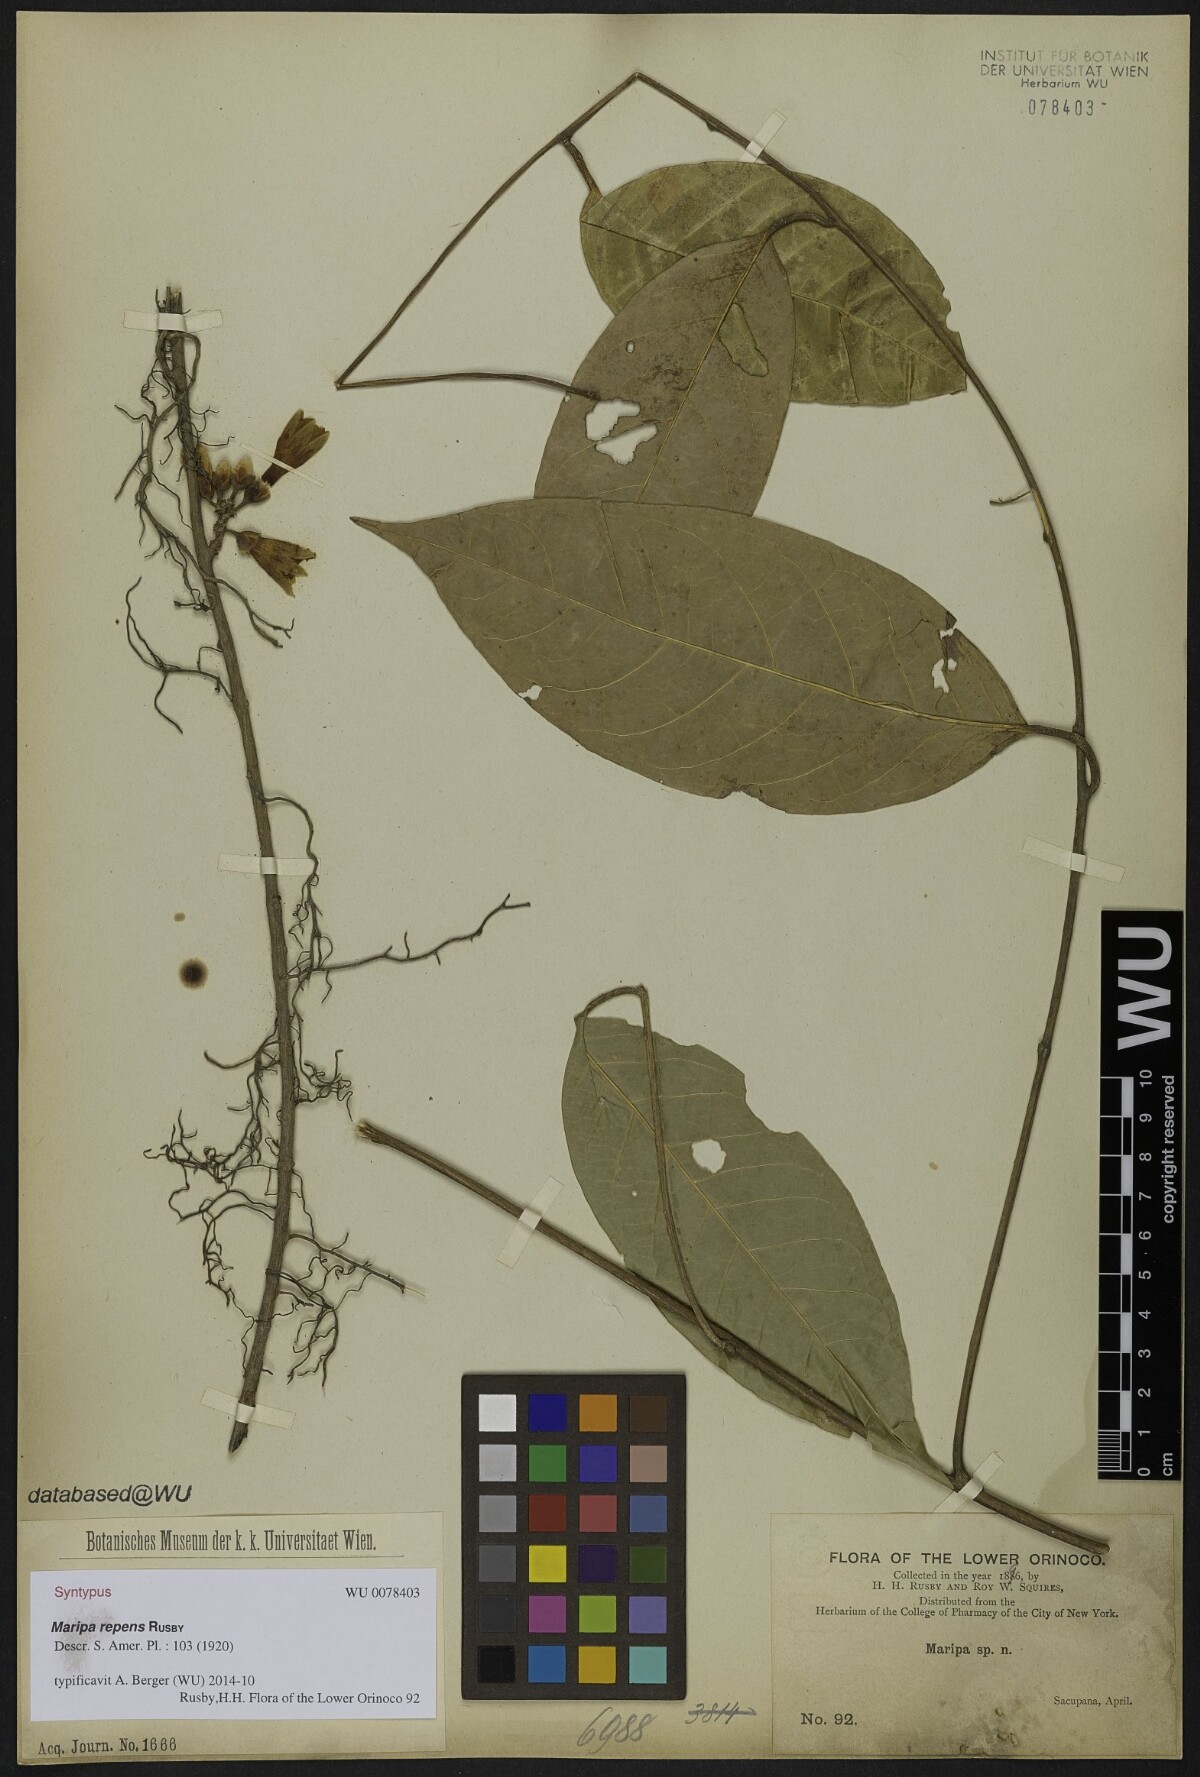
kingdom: Plantae
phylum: Tracheophyta
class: Magnoliopsida
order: Solanales
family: Convolvulaceae
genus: Maripa
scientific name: Maripa repens
